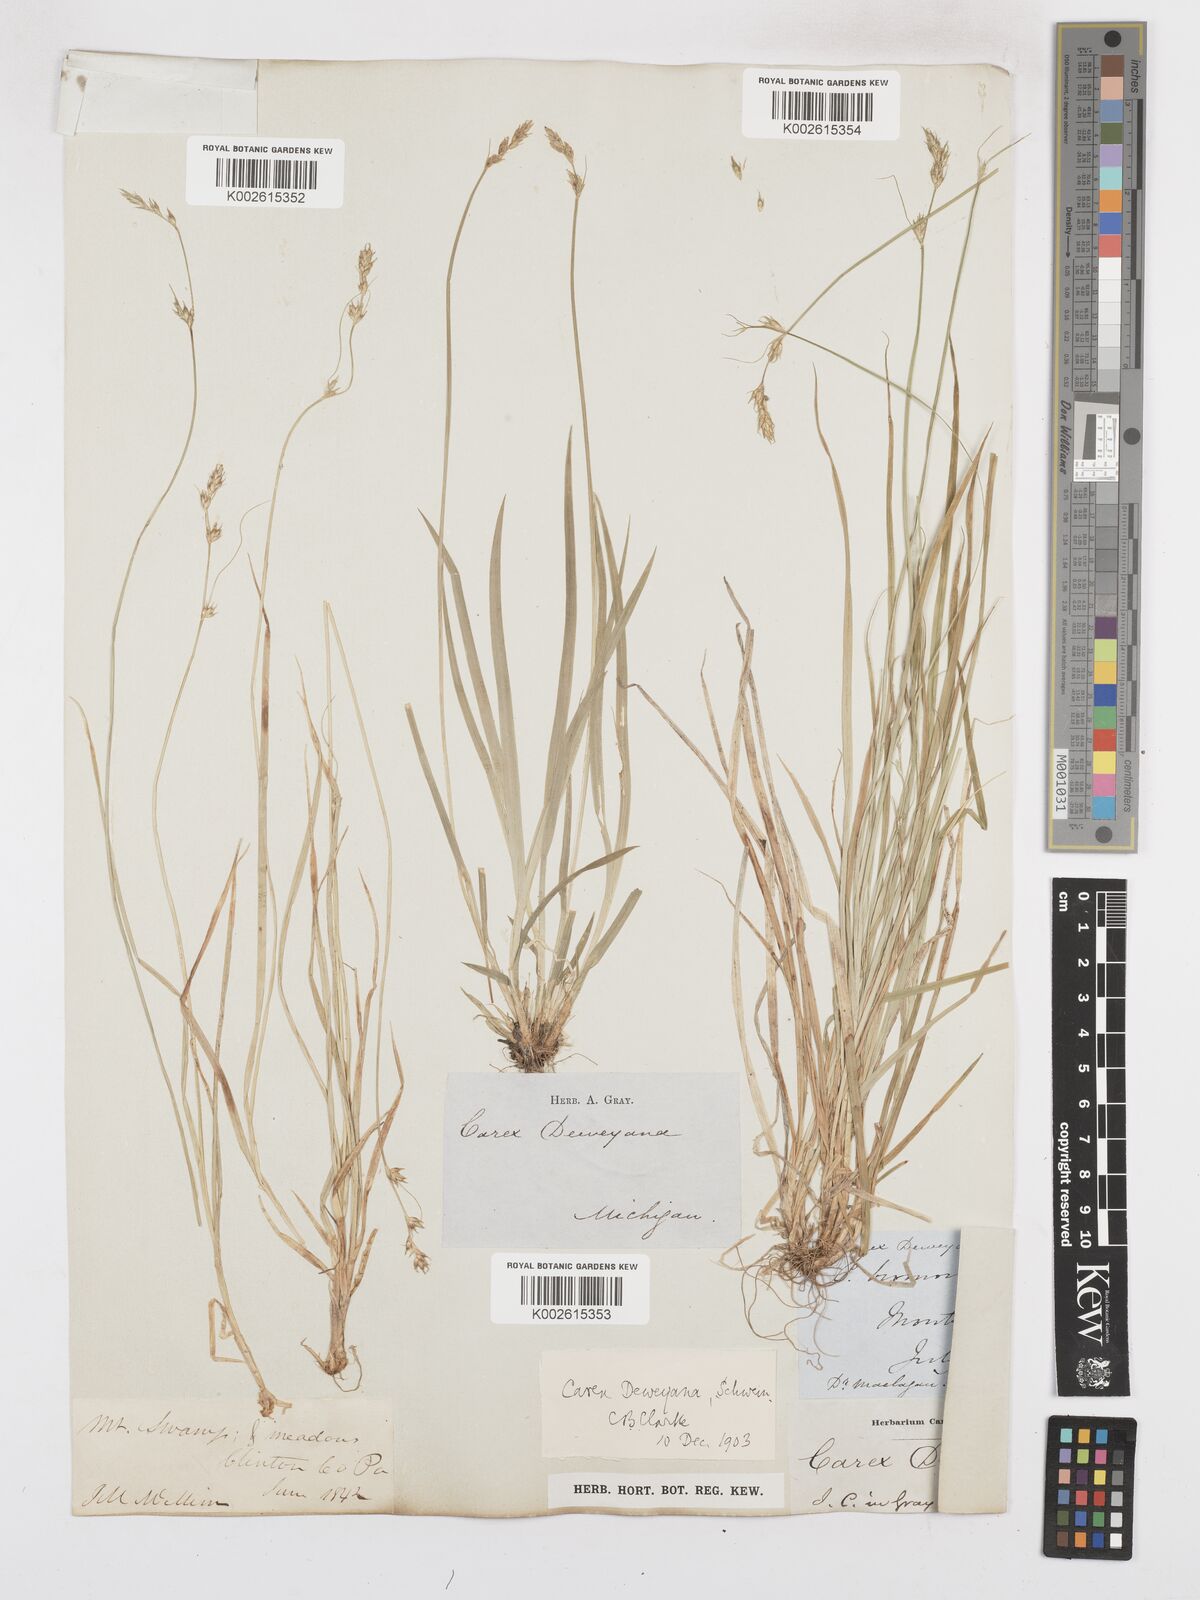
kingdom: Plantae
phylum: Tracheophyta
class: Liliopsida
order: Poales
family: Cyperaceae
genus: Carex
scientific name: Carex deweyana
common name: Dewey's sedge
